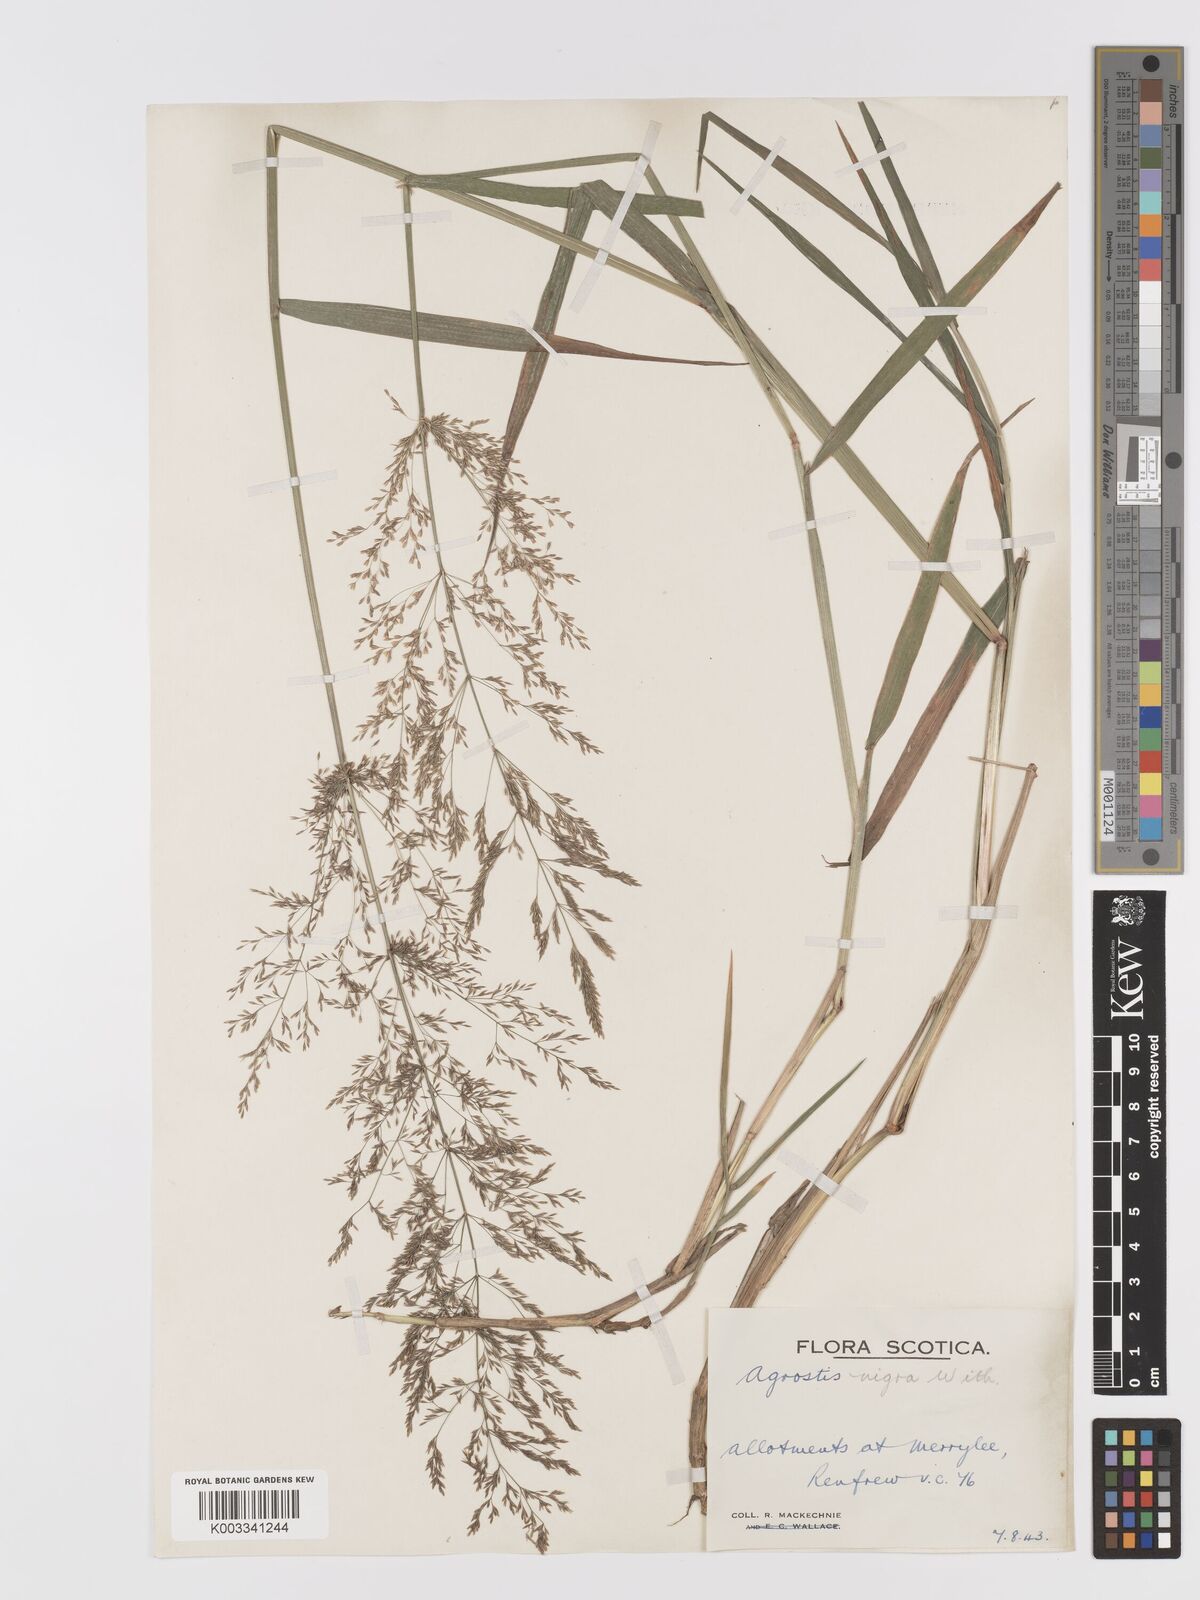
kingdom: Plantae
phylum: Tracheophyta
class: Liliopsida
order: Poales
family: Poaceae
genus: Agrostis
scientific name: Agrostis gigantea
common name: Black bent
